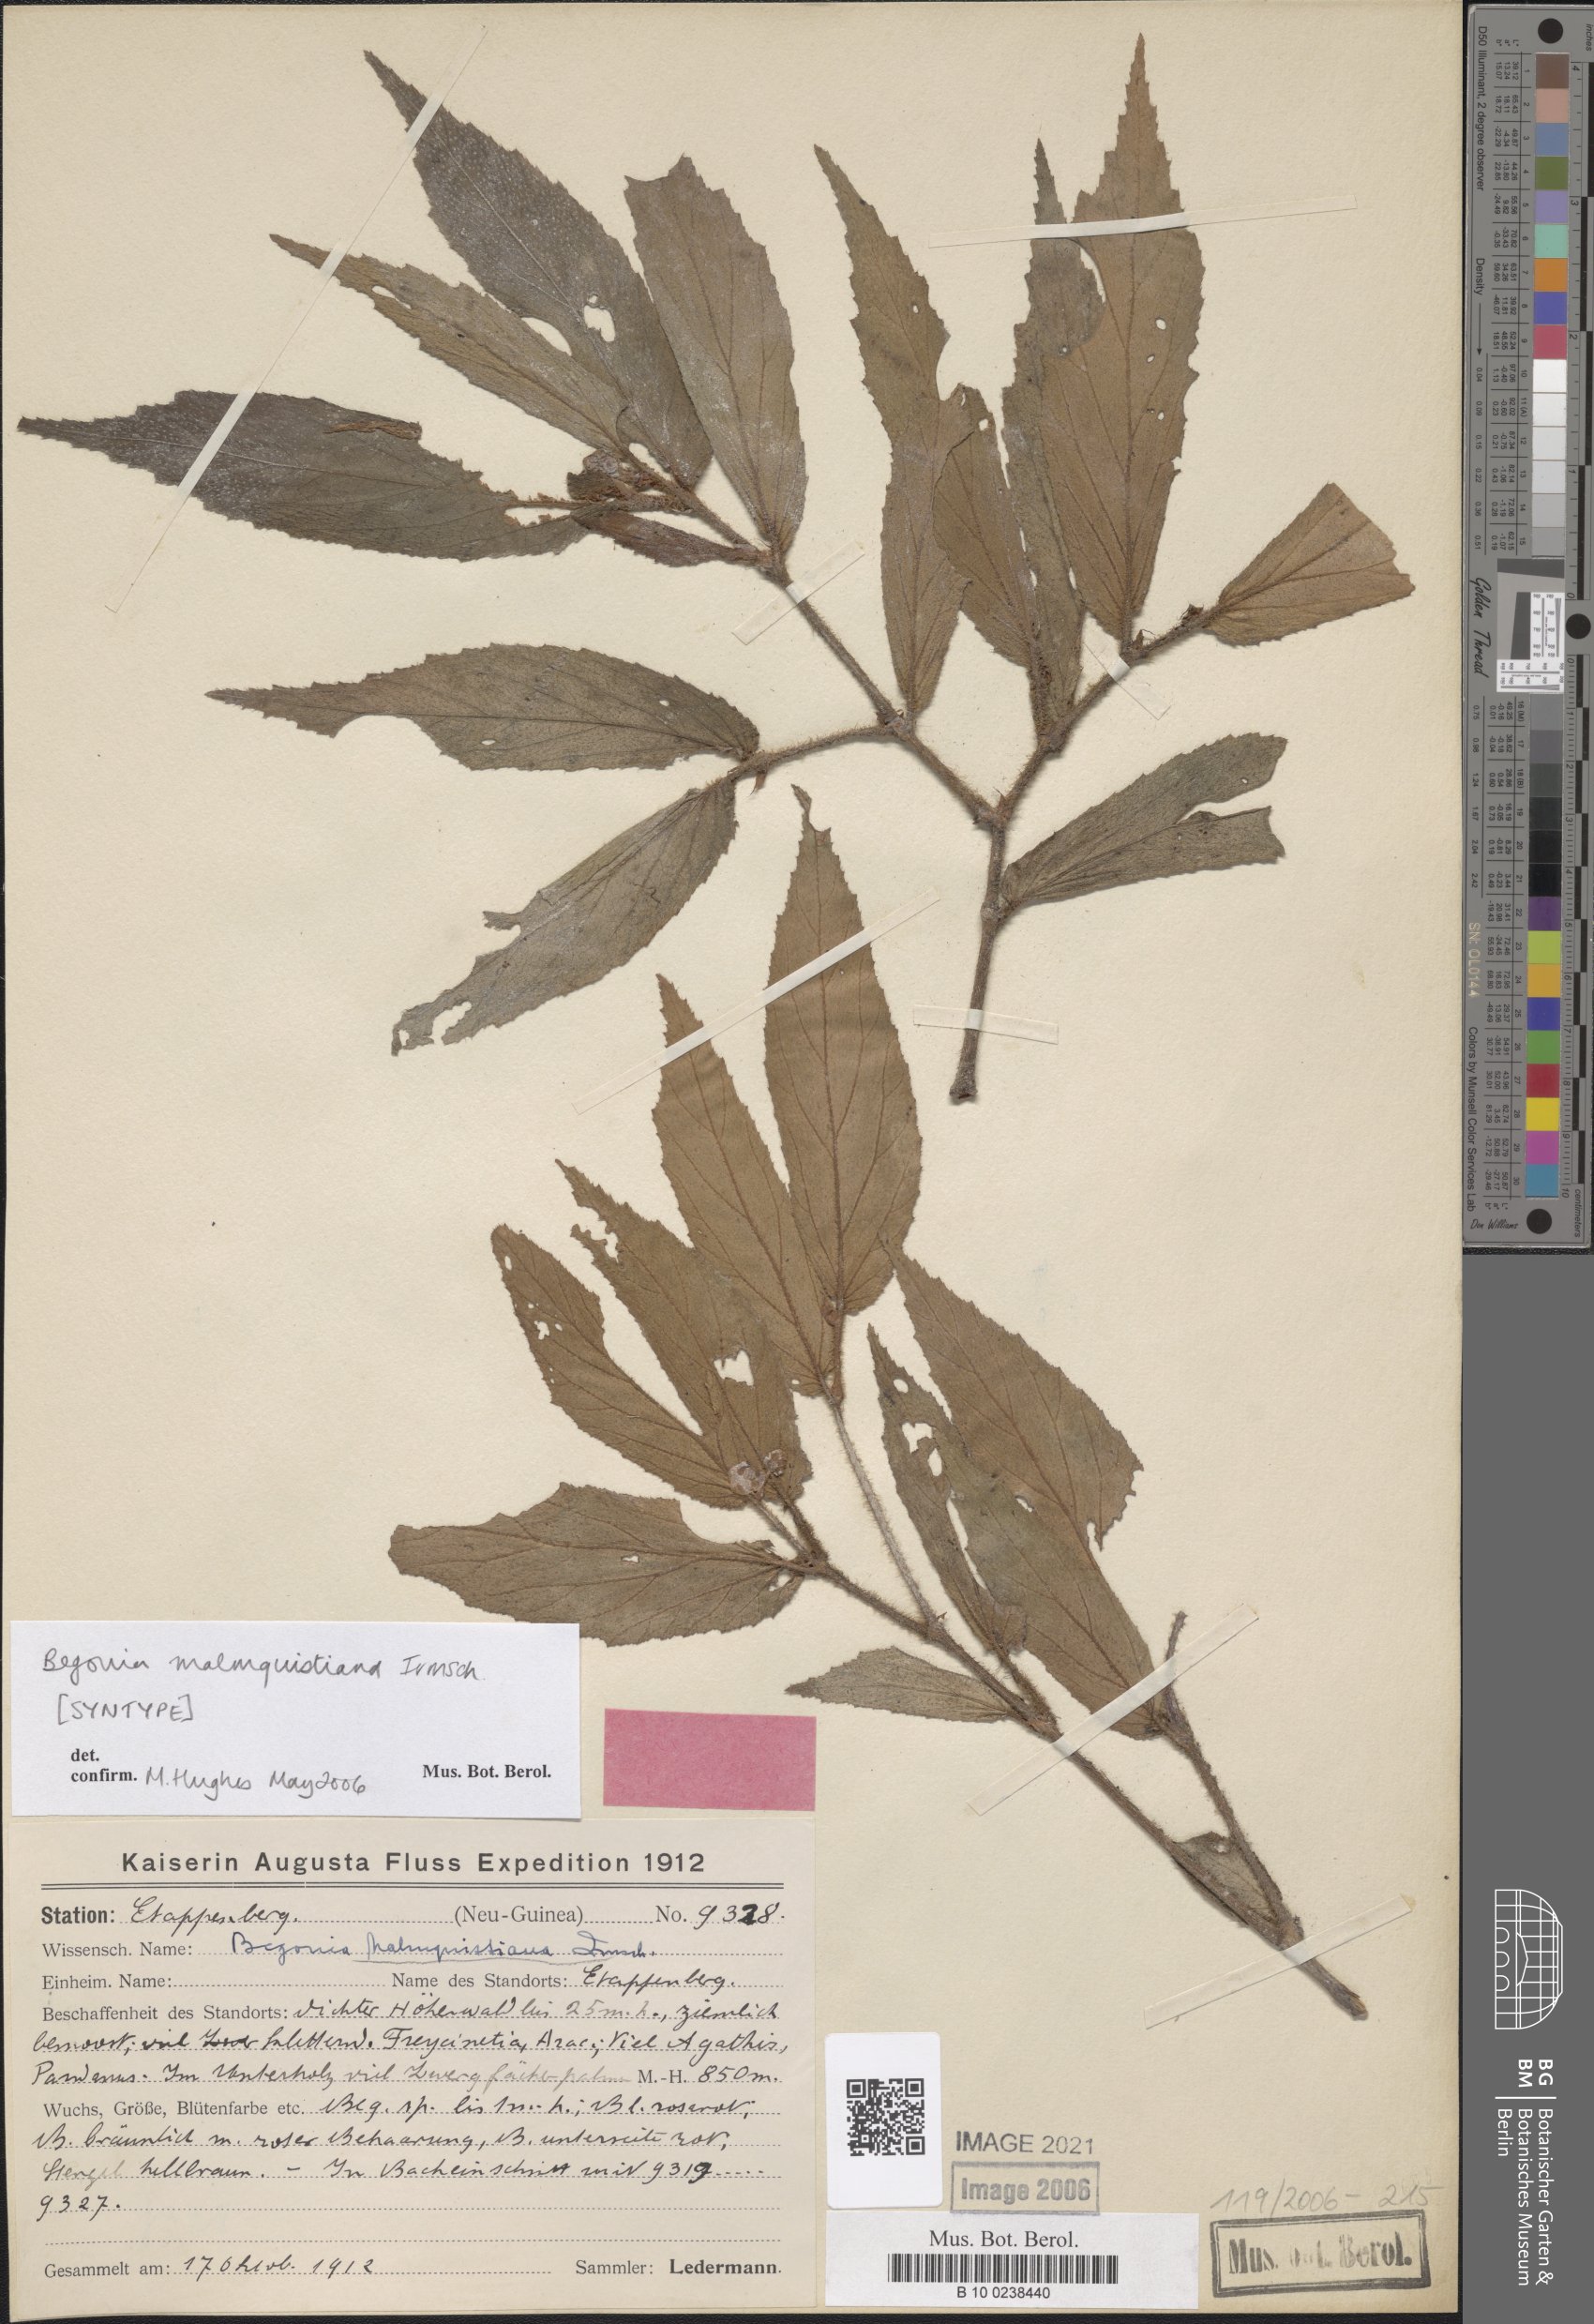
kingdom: Plantae
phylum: Tracheophyta
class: Magnoliopsida
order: Cucurbitales
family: Begoniaceae
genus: Begonia
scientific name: Begonia malmquistiana
